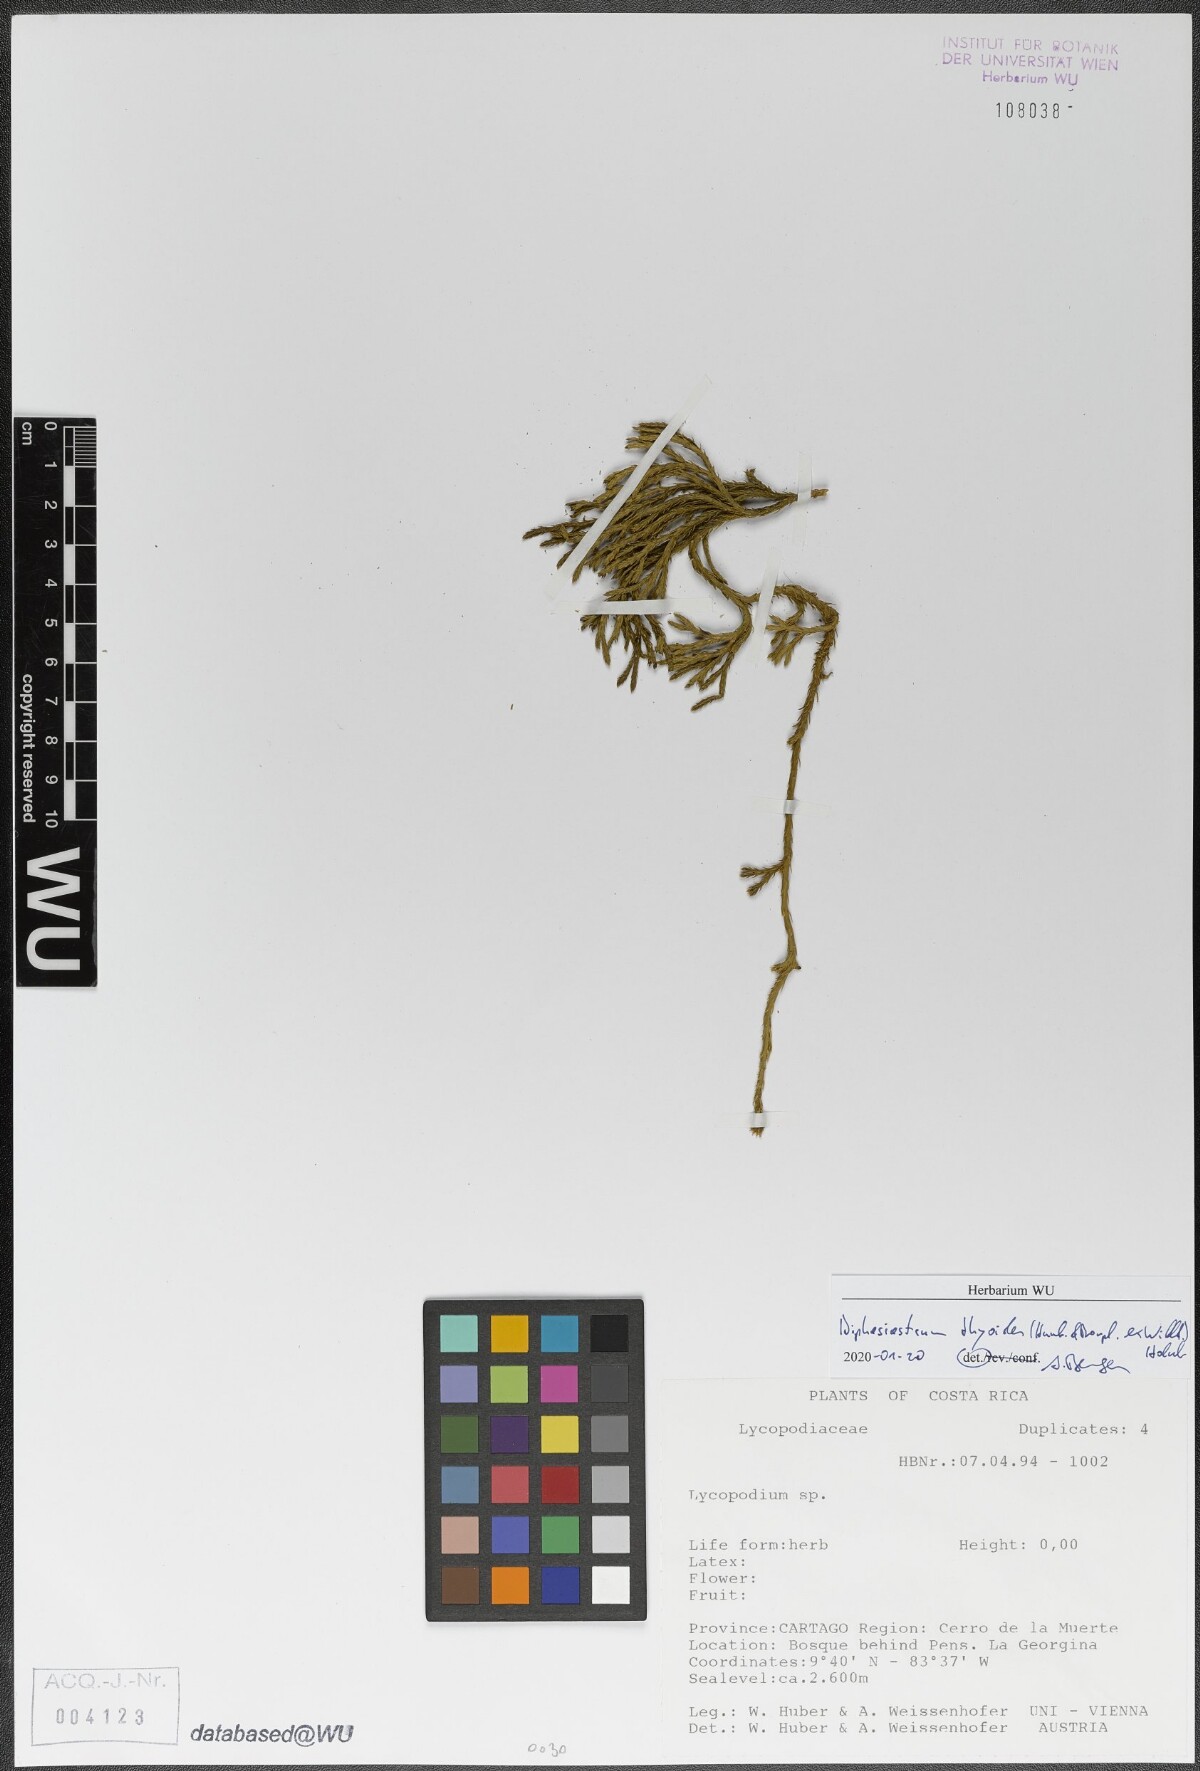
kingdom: Plantae
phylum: Tracheophyta
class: Lycopodiopsida
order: Lycopodiales
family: Lycopodiaceae
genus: Diphasiastrum
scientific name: Diphasiastrum thyoides
